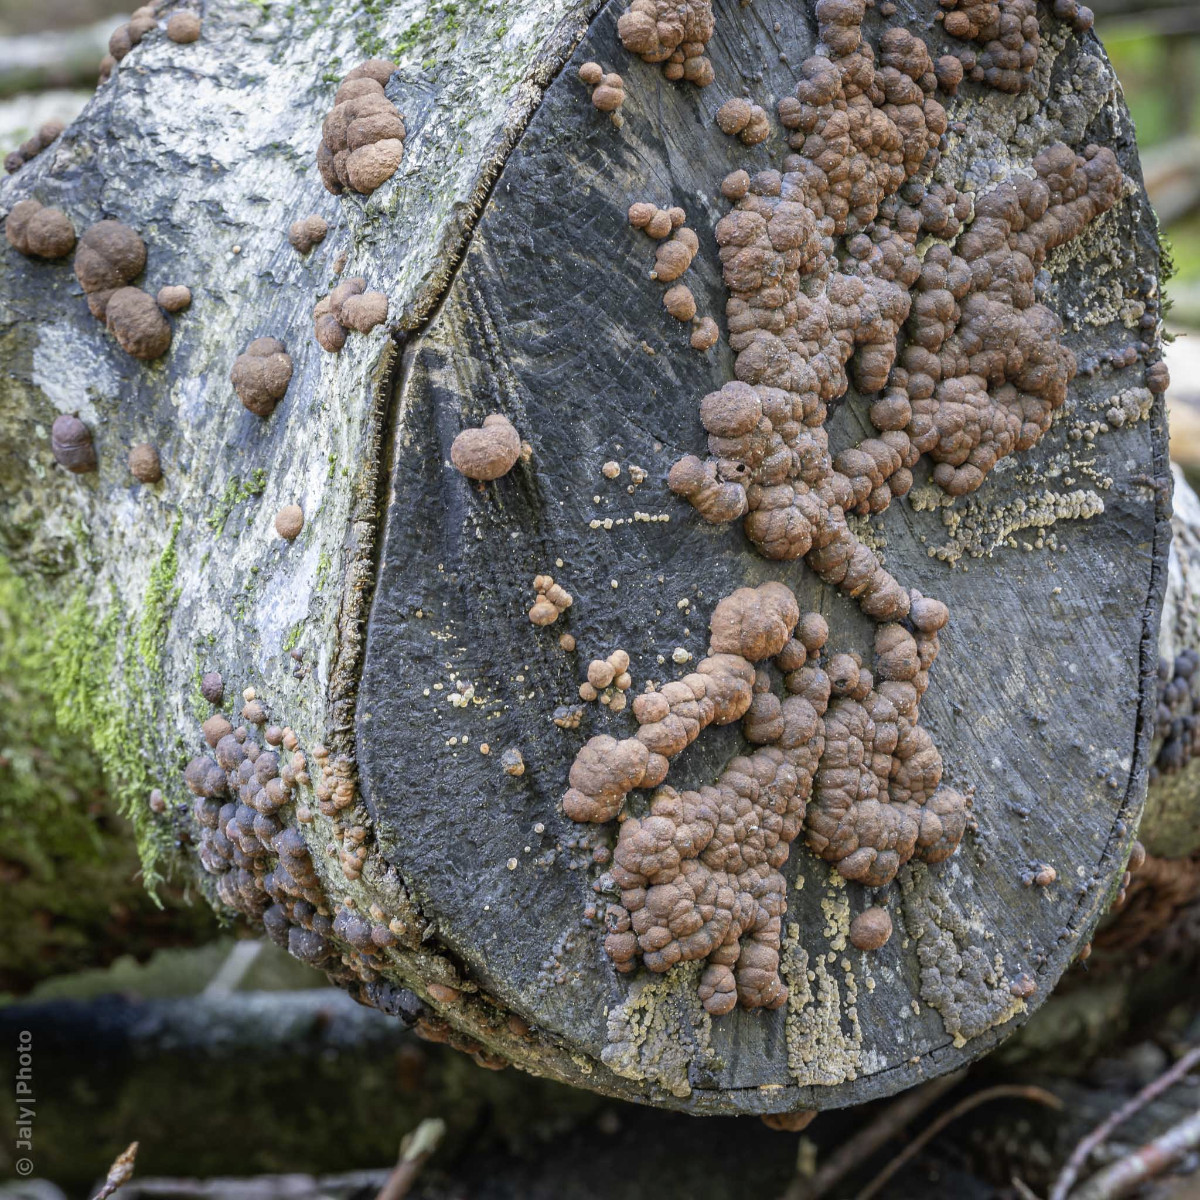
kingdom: Fungi
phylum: Ascomycota
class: Sordariomycetes
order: Xylariales
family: Hypoxylaceae
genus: Hypoxylon
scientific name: Hypoxylon fragiforme
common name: kuljordbær
